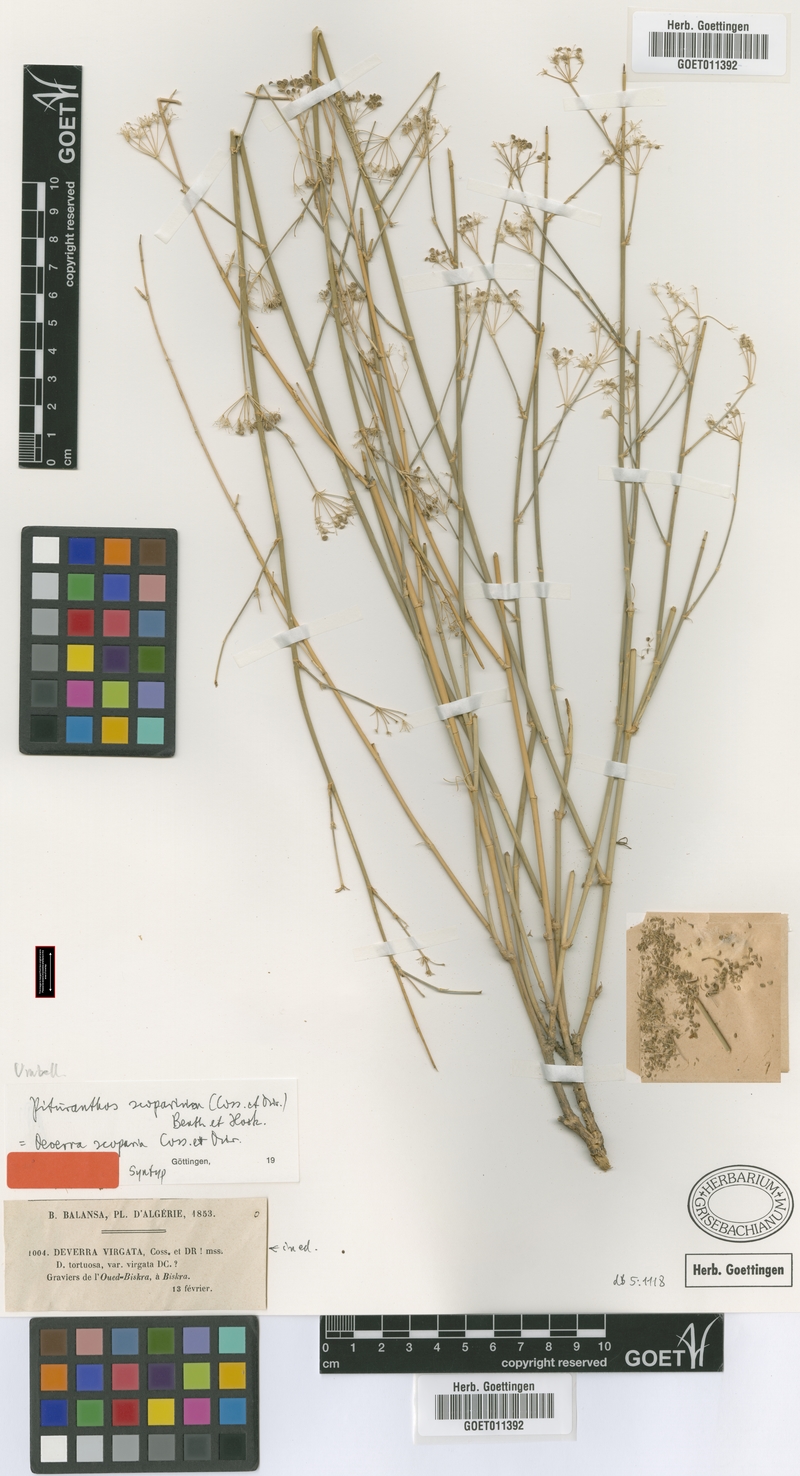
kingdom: Plantae
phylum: Tracheophyta
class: Magnoliopsida
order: Apiales
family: Apiaceae
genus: Deverra
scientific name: Deverra scoparia
